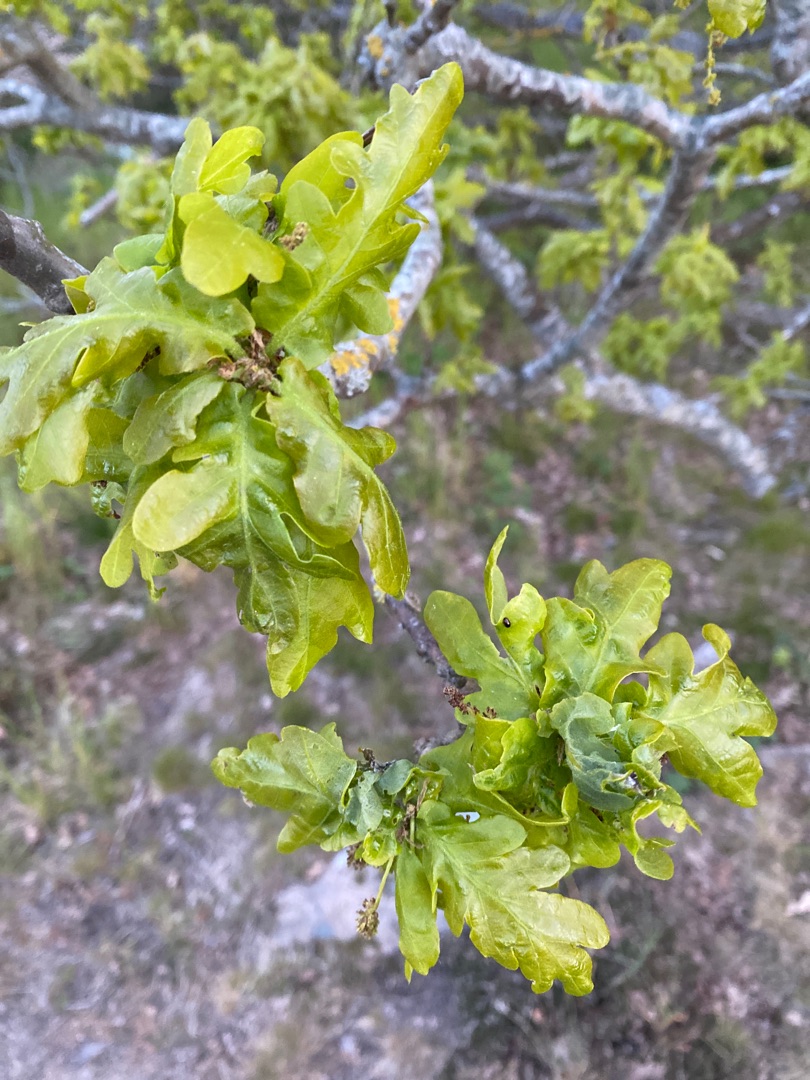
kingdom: Plantae
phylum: Tracheophyta
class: Magnoliopsida
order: Fagales
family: Fagaceae
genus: Quercus
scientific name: Quercus robur
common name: Stilk-eg/almindelig eg
